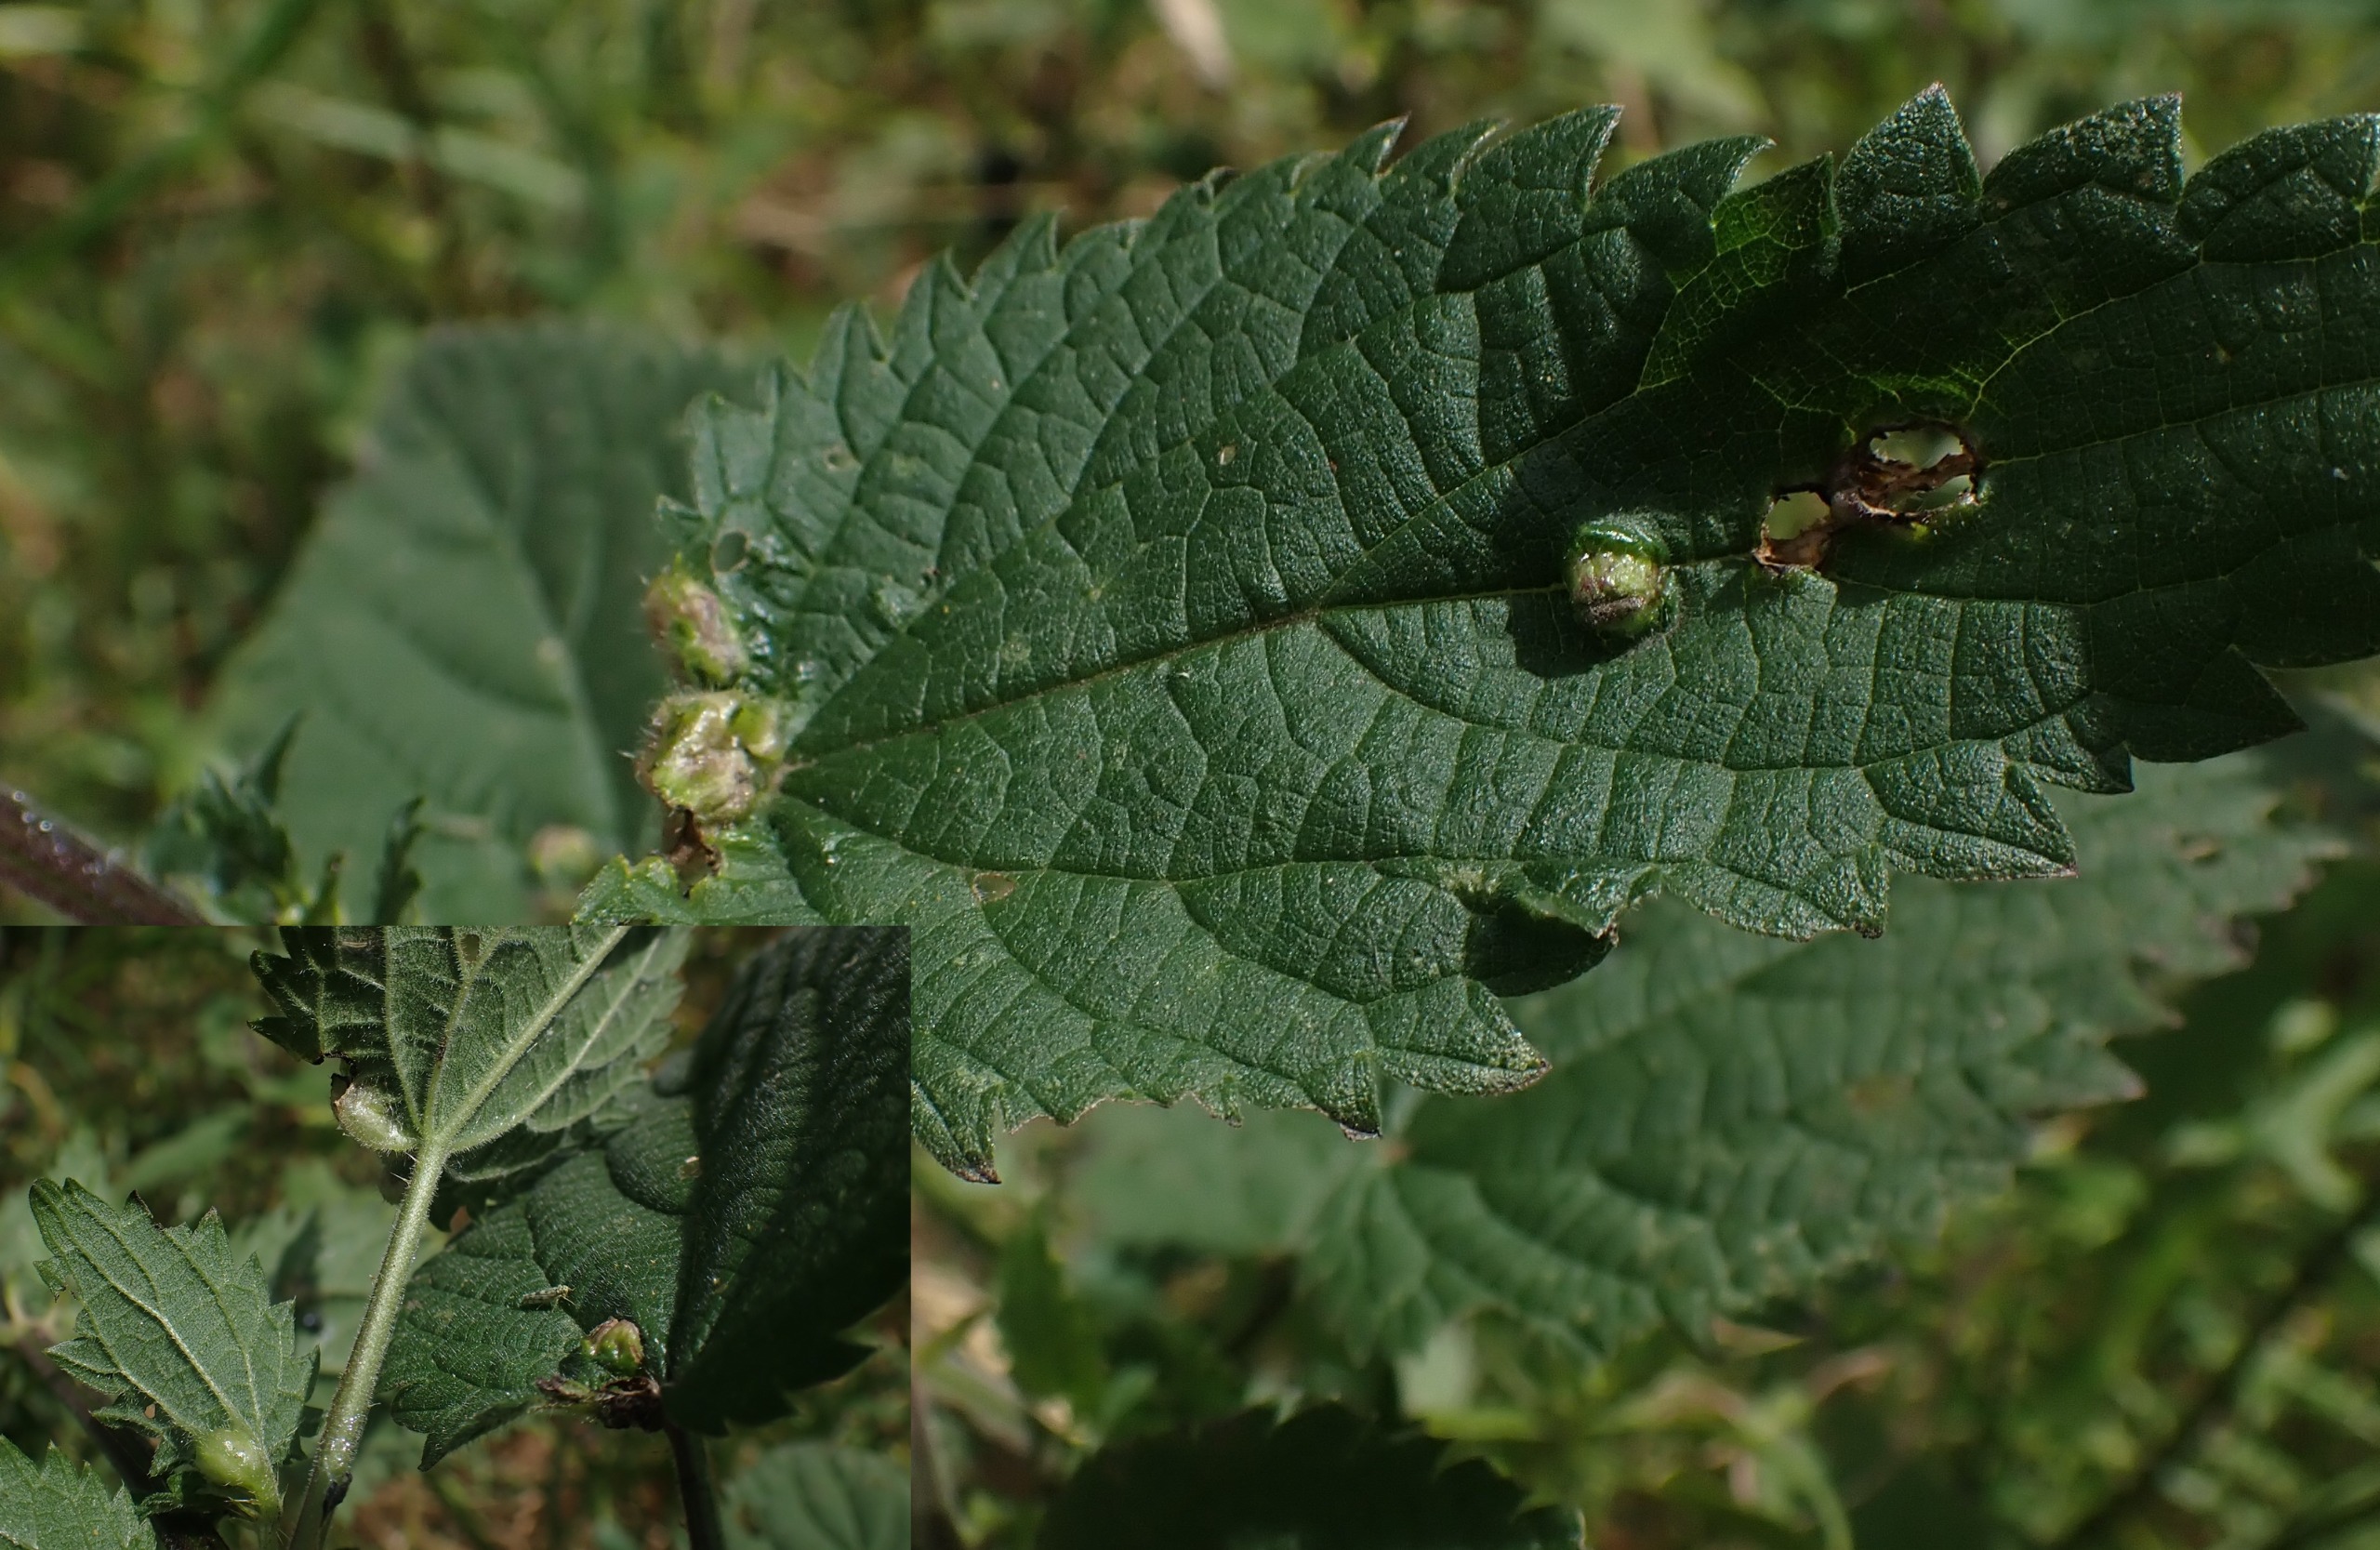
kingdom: Animalia
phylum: Arthropoda
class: Insecta
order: Diptera
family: Cecidomyiidae
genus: Dasineura
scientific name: Dasineura urticae
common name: Nældepunggalmyg
